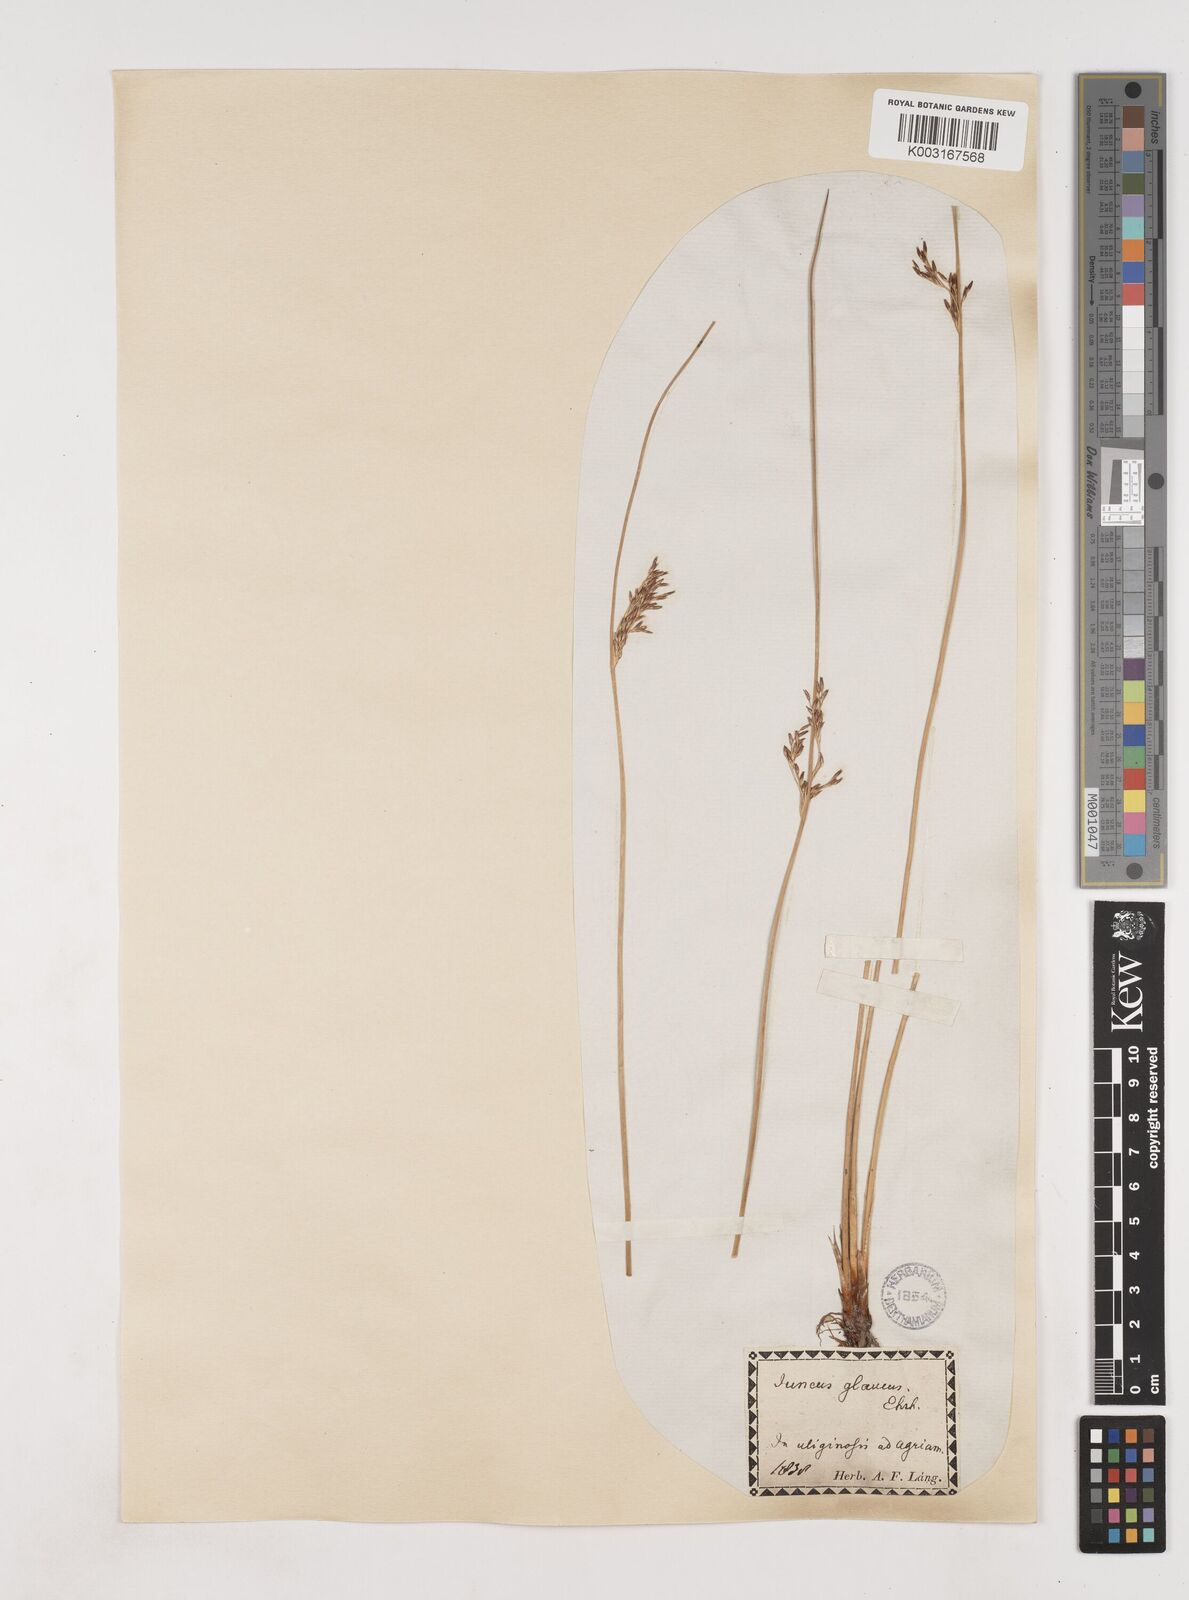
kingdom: Plantae
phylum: Tracheophyta
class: Liliopsida
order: Poales
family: Juncaceae
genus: Juncus
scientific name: Juncus inflexus
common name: Hard rush
